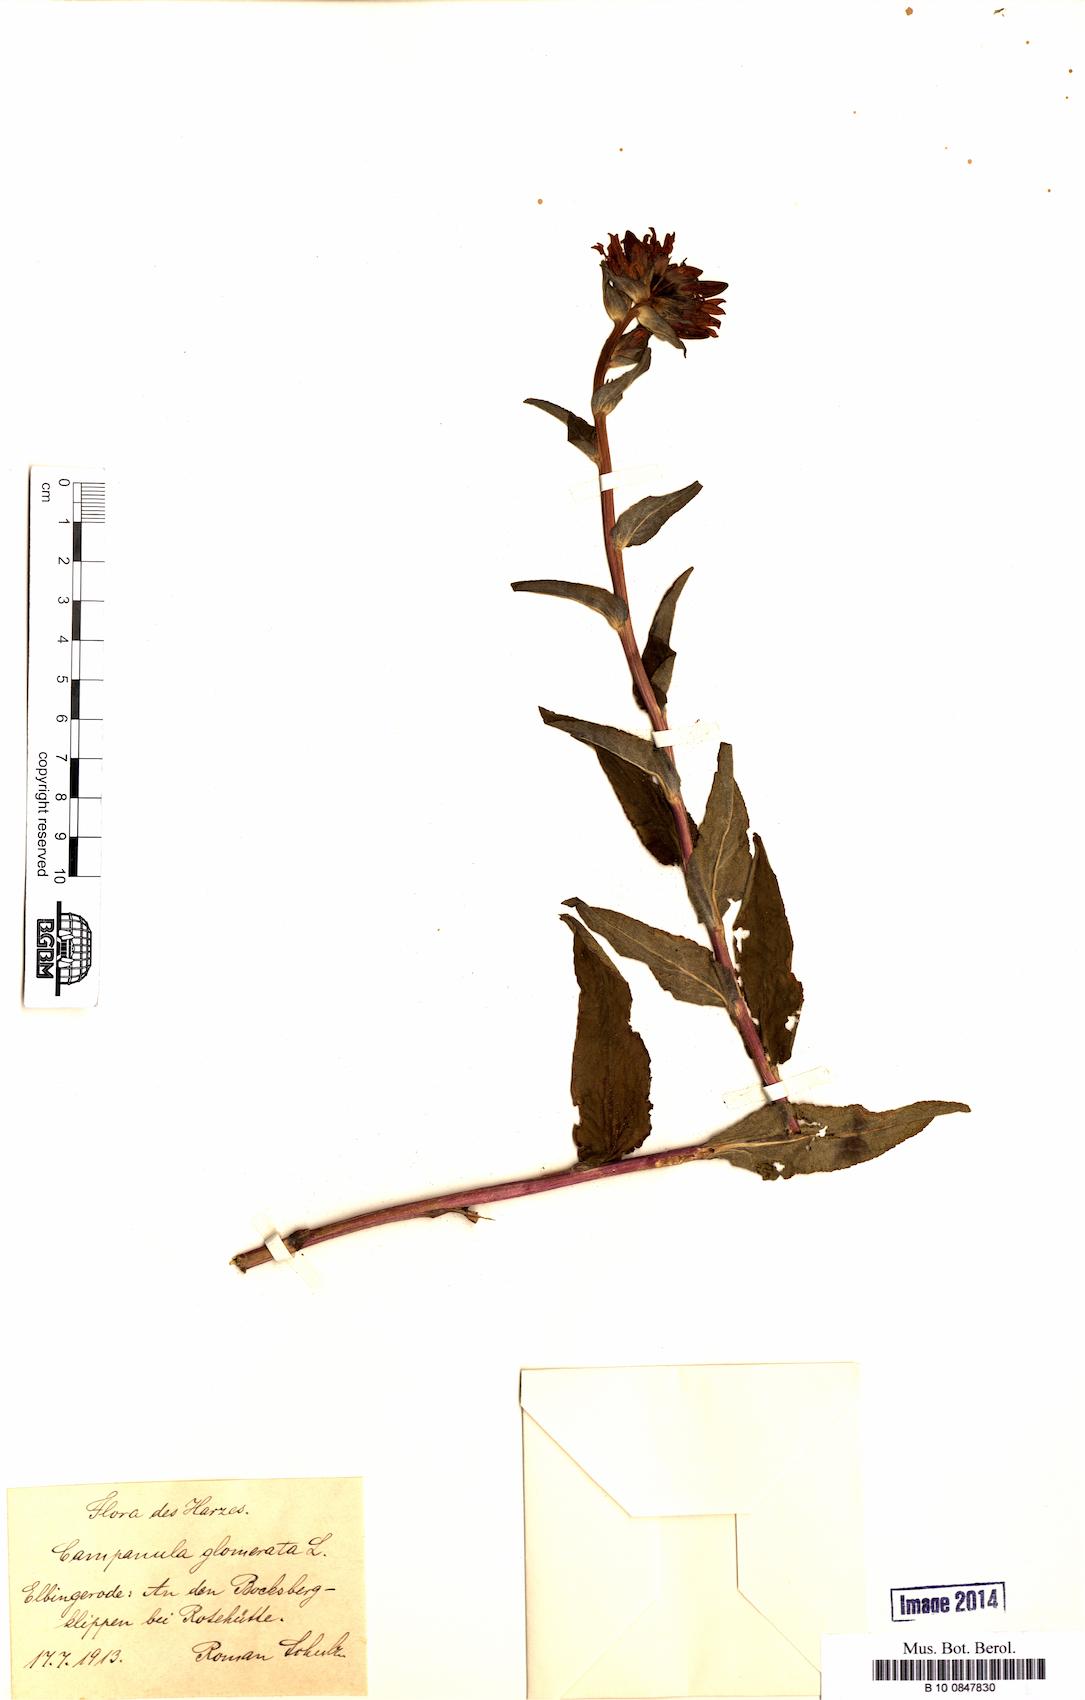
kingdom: Plantae
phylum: Tracheophyta
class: Magnoliopsida
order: Asterales
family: Campanulaceae
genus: Campanula
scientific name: Campanula glomerata
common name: Clustered bellflower
